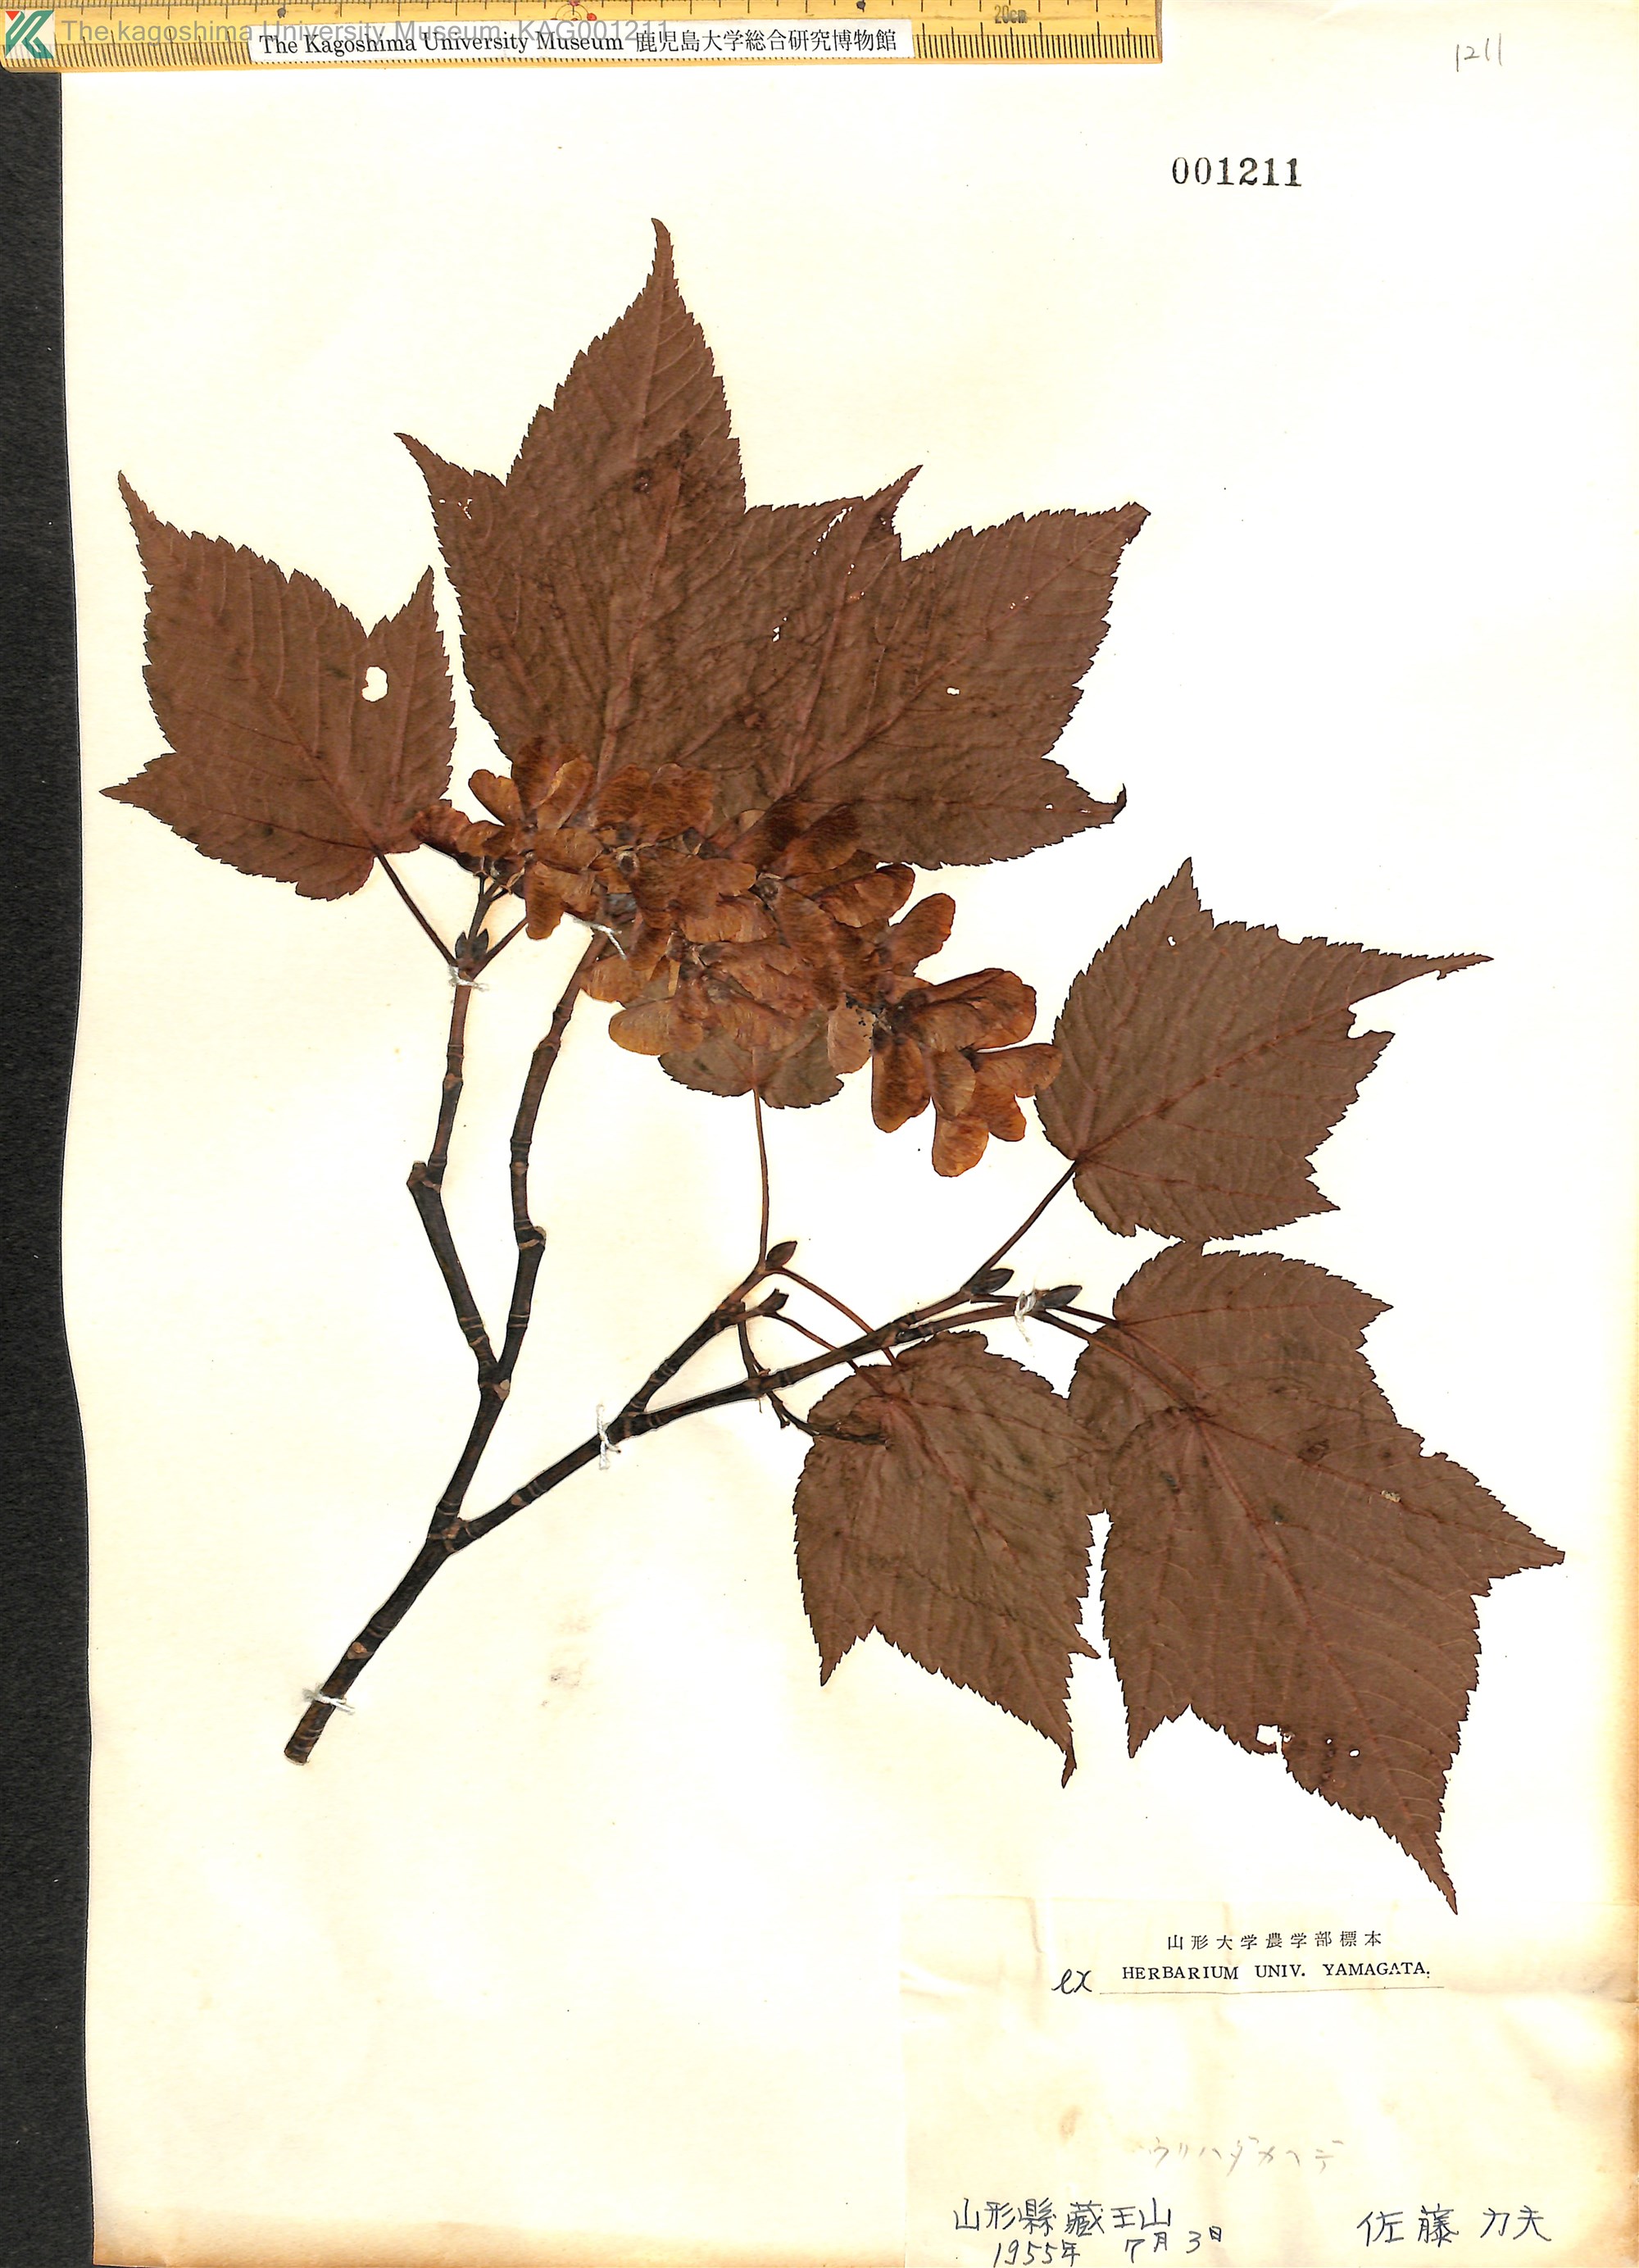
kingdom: Plantae
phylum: Tracheophyta
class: Magnoliopsida
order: Sapindales
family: Sapindaceae
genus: Acer
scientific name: Acer rufinerve
